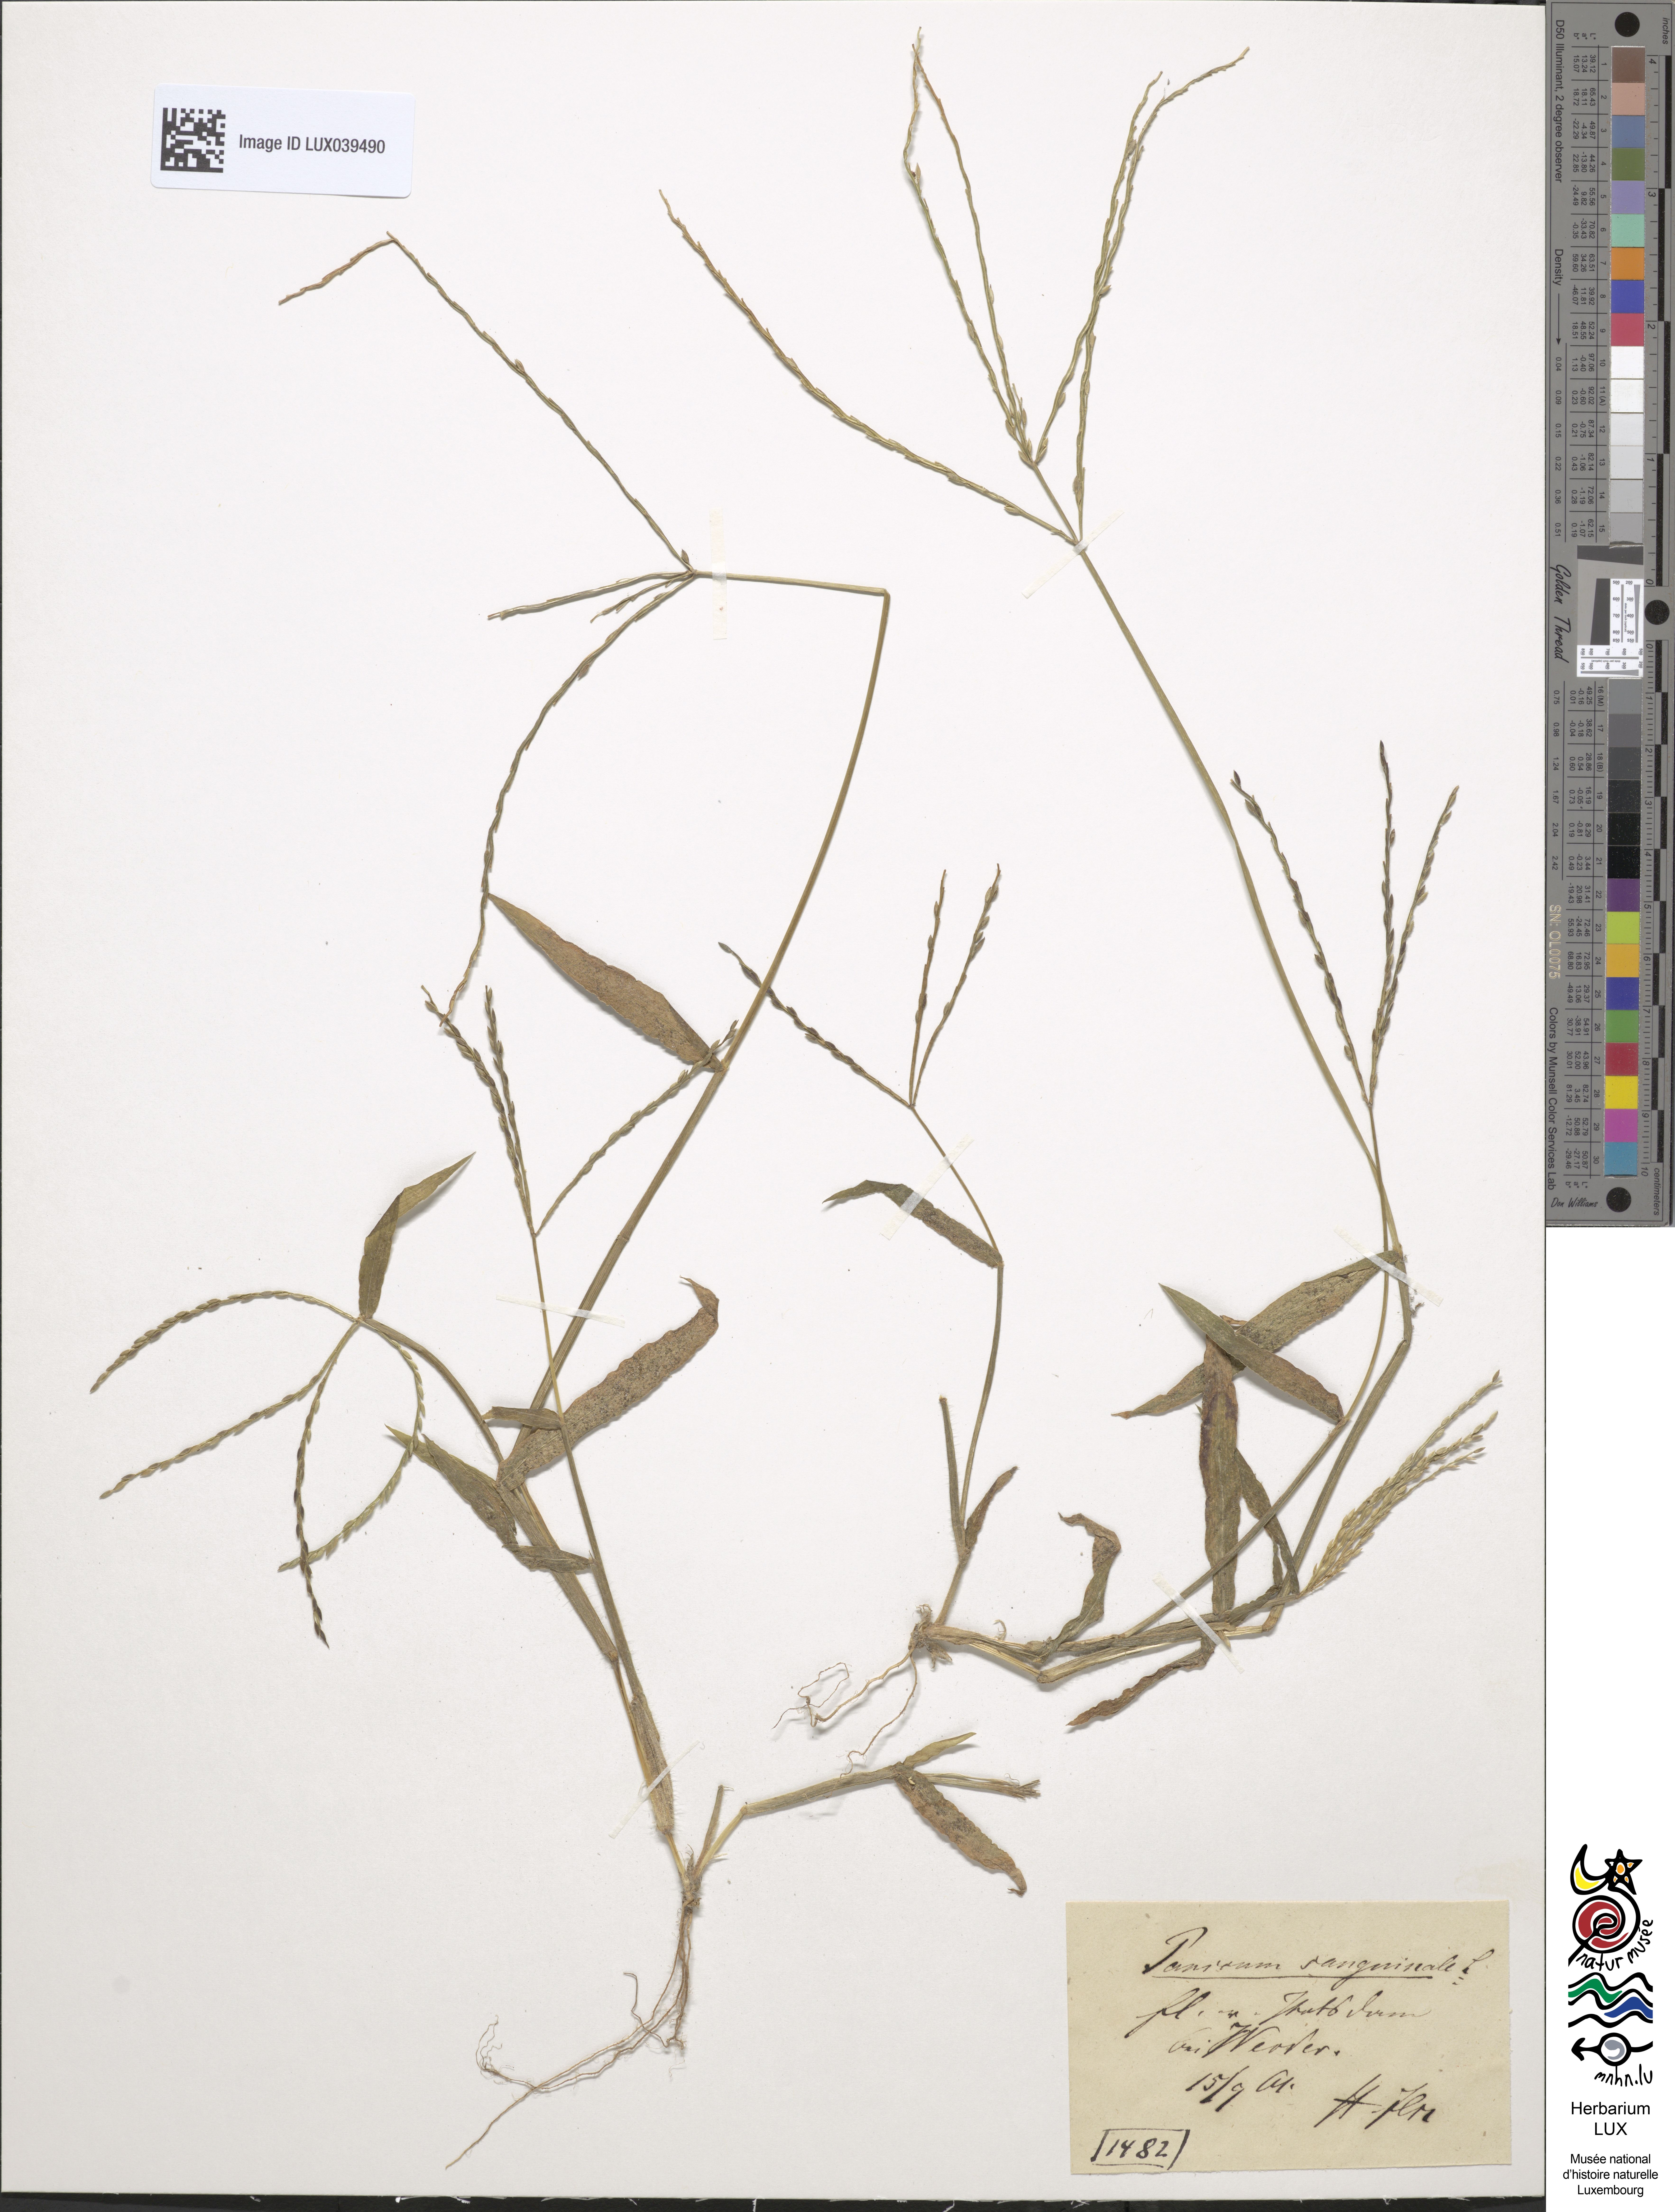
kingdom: Plantae
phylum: Tracheophyta
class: Liliopsida
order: Poales
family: Poaceae
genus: Digitaria
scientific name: Digitaria sanguinalis
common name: Hairy crabgrass
